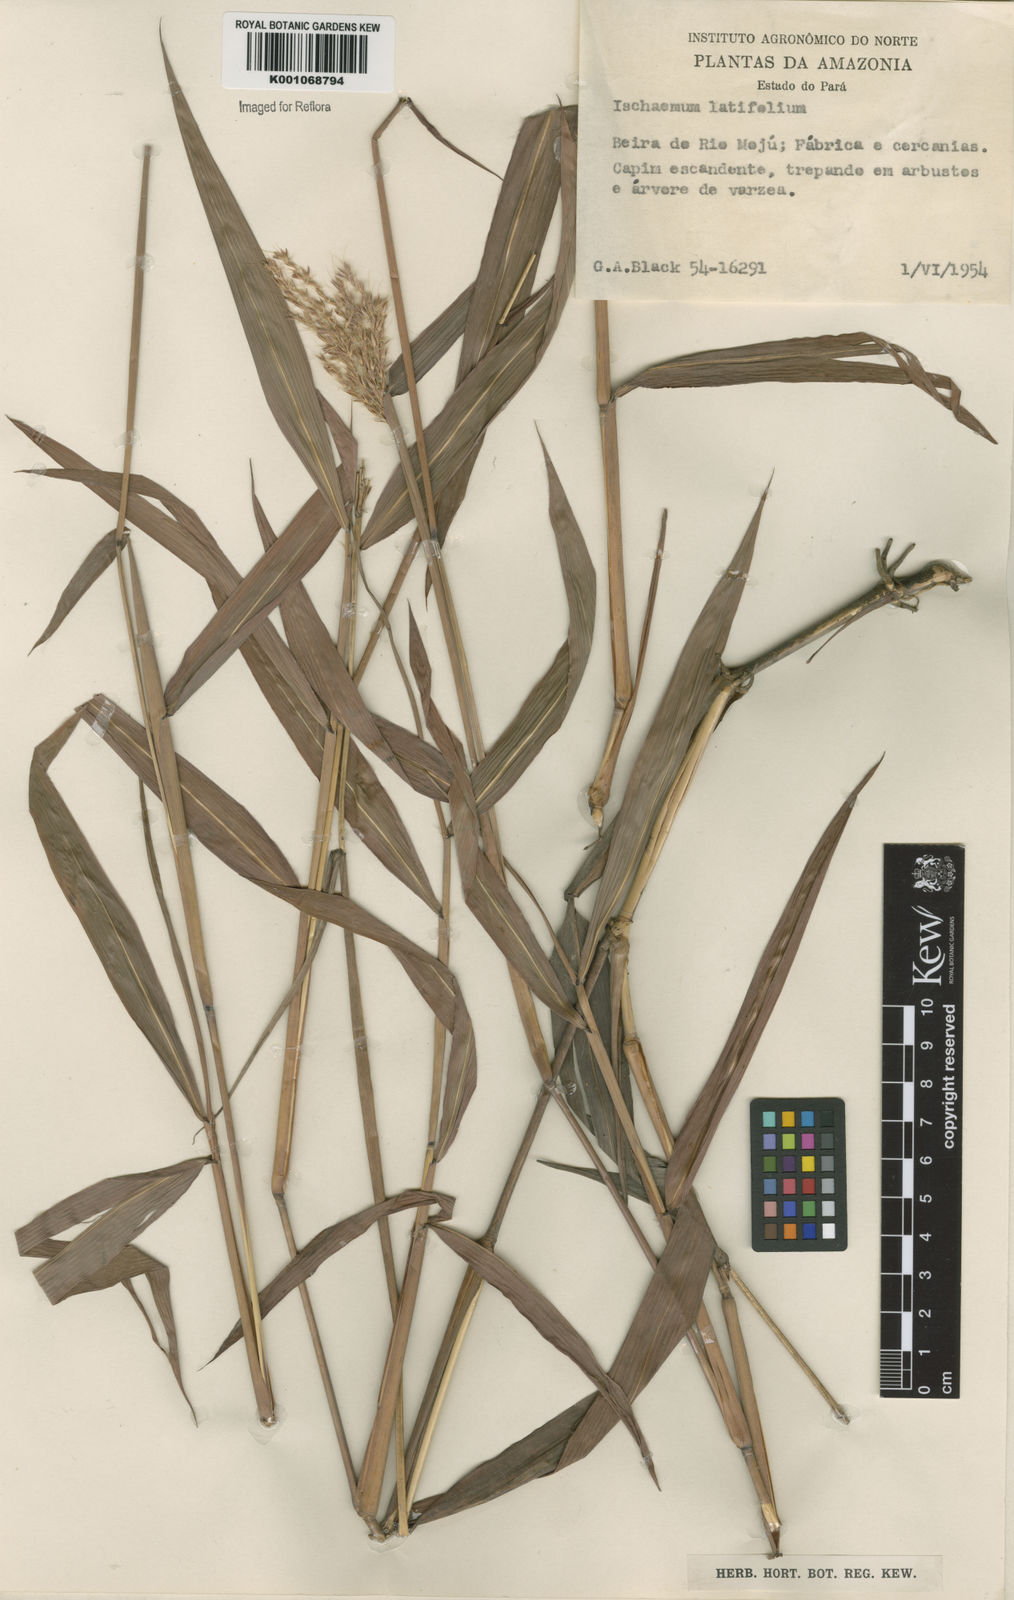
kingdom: Plantae
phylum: Tracheophyta
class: Liliopsida
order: Poales
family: Poaceae
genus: Ischaemum
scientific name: Ischaemum latifolium
